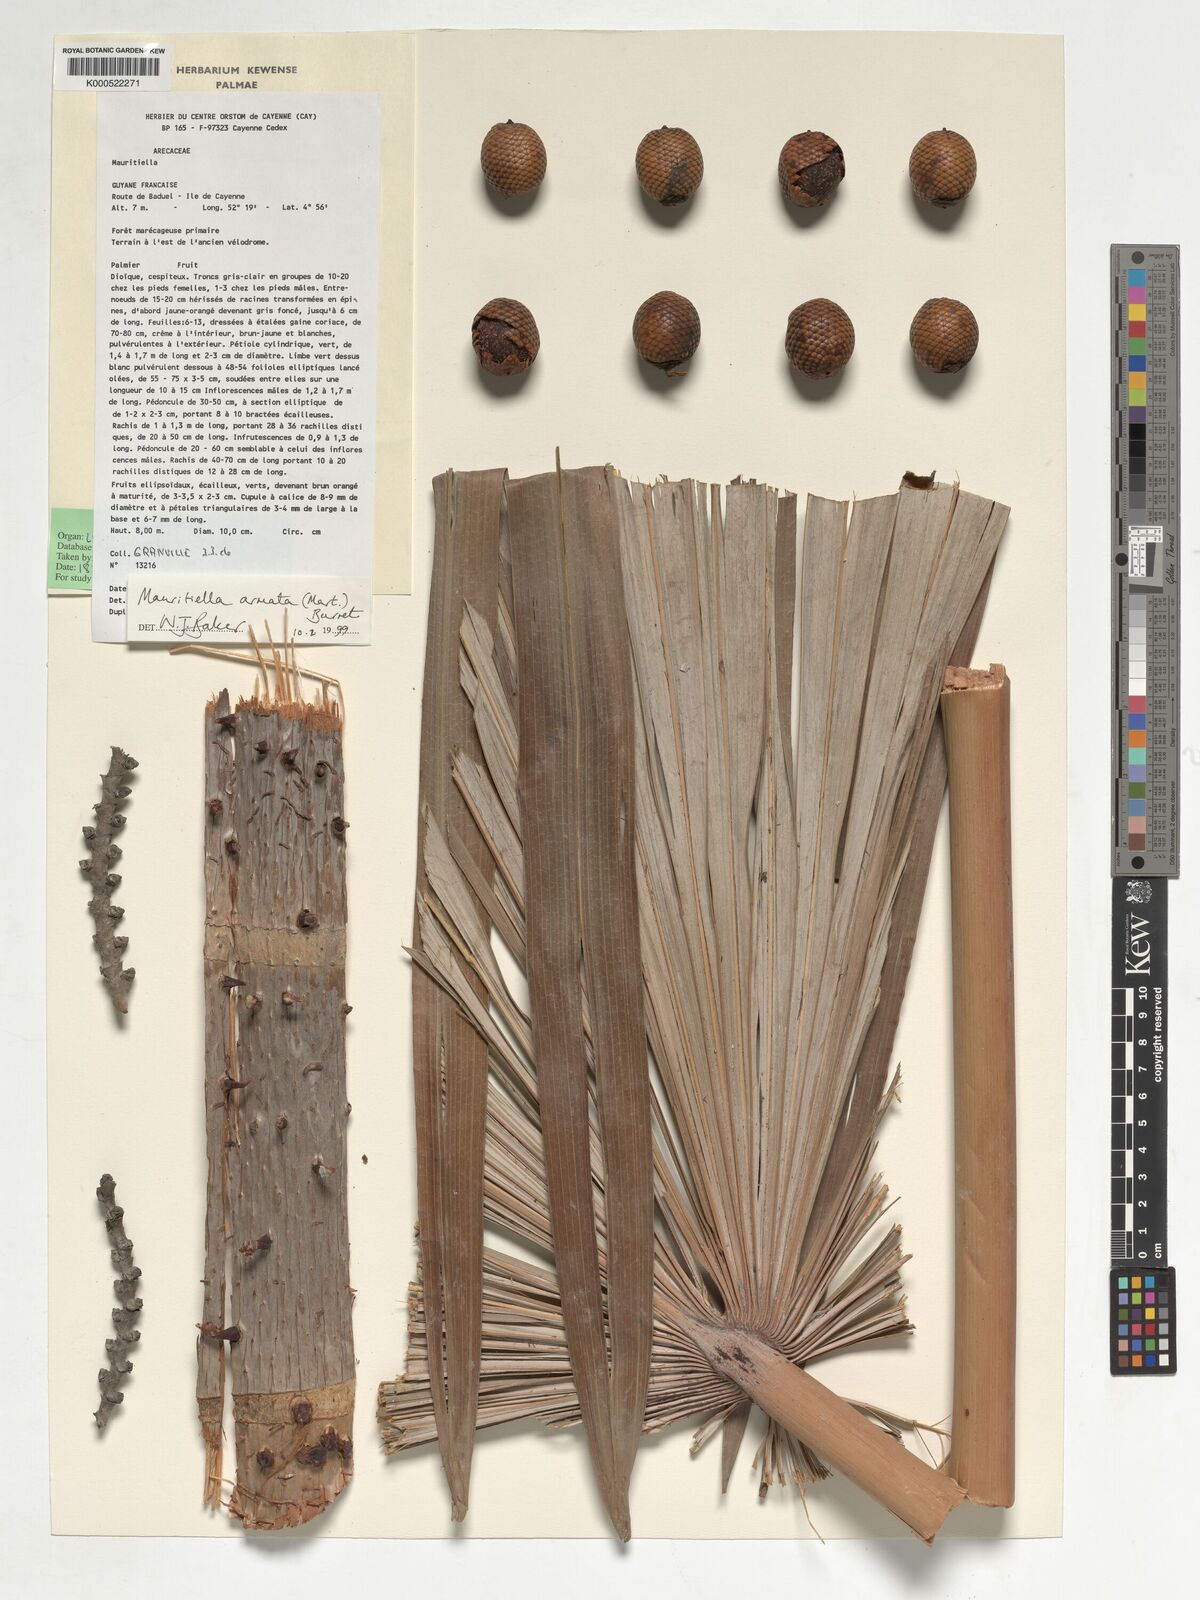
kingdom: Plantae
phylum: Tracheophyta
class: Liliopsida
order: Arecales
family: Arecaceae
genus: Mauritiella
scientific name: Mauritiella armata
